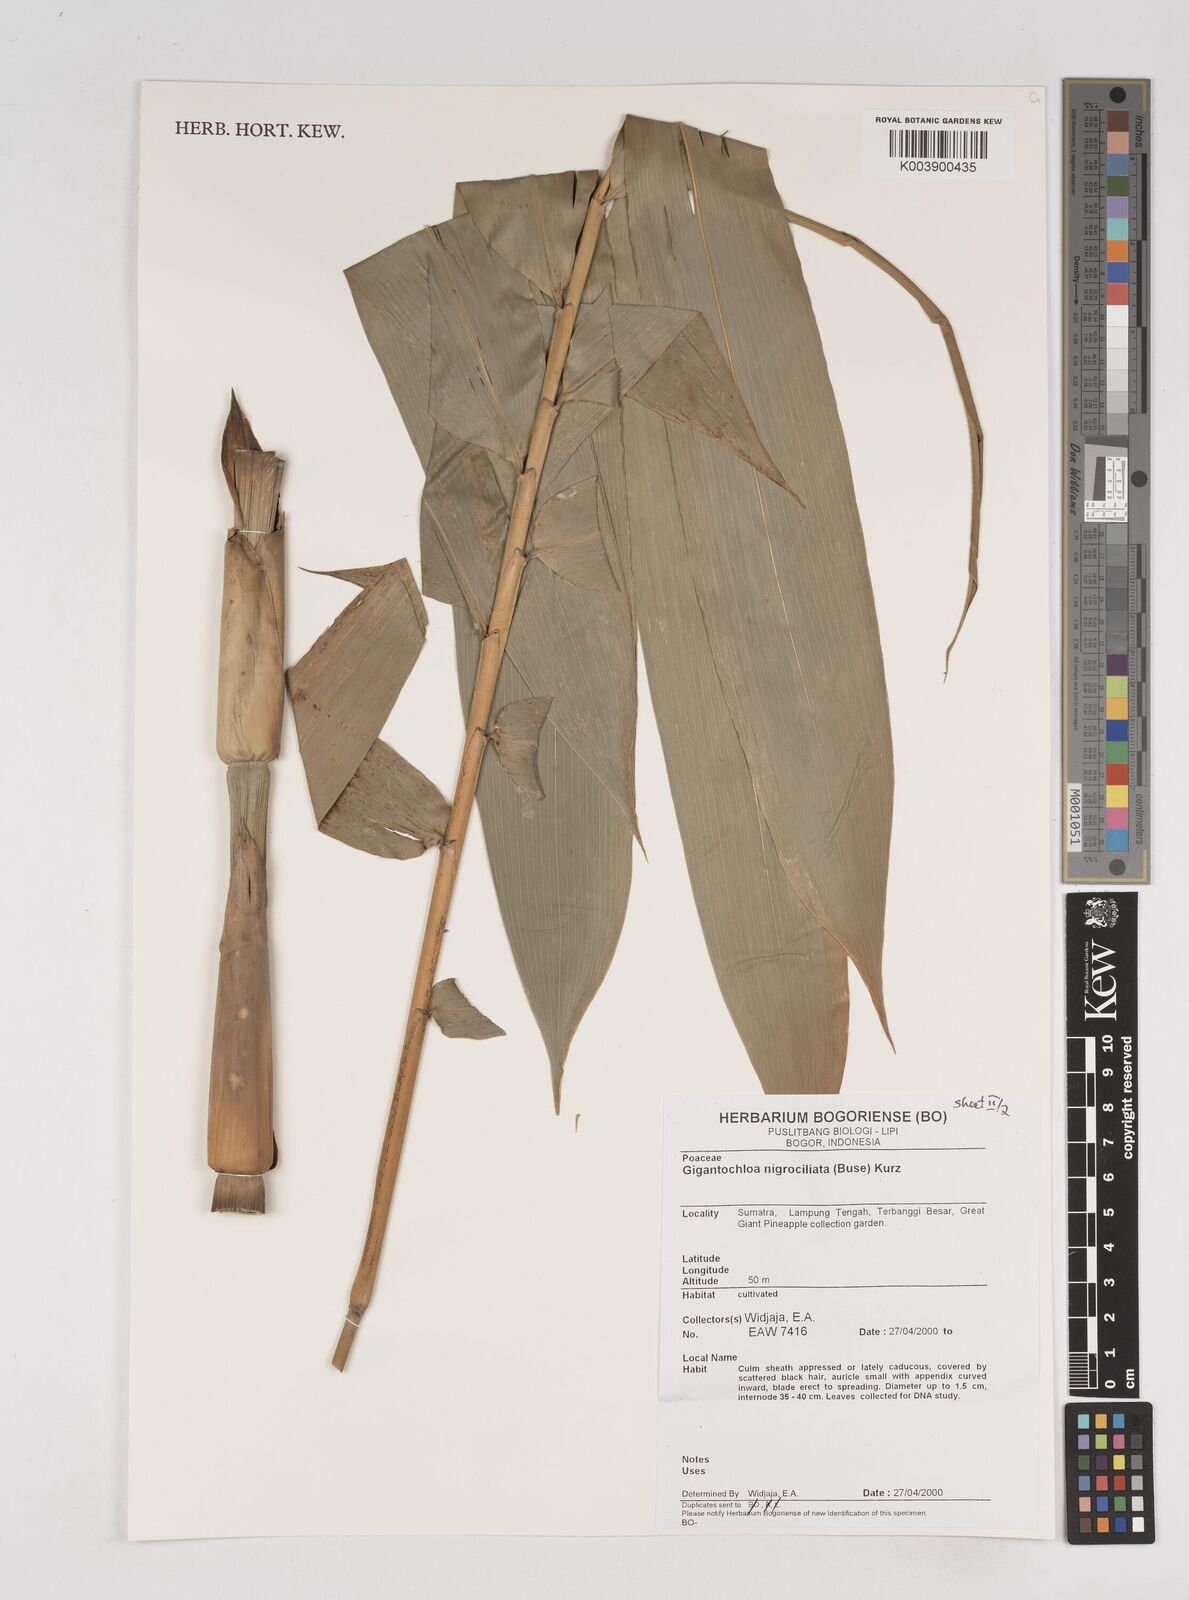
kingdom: Plantae
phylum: Tracheophyta
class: Liliopsida
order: Poales
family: Poaceae
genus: Gigantochloa
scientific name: Gigantochloa nigrociliata
